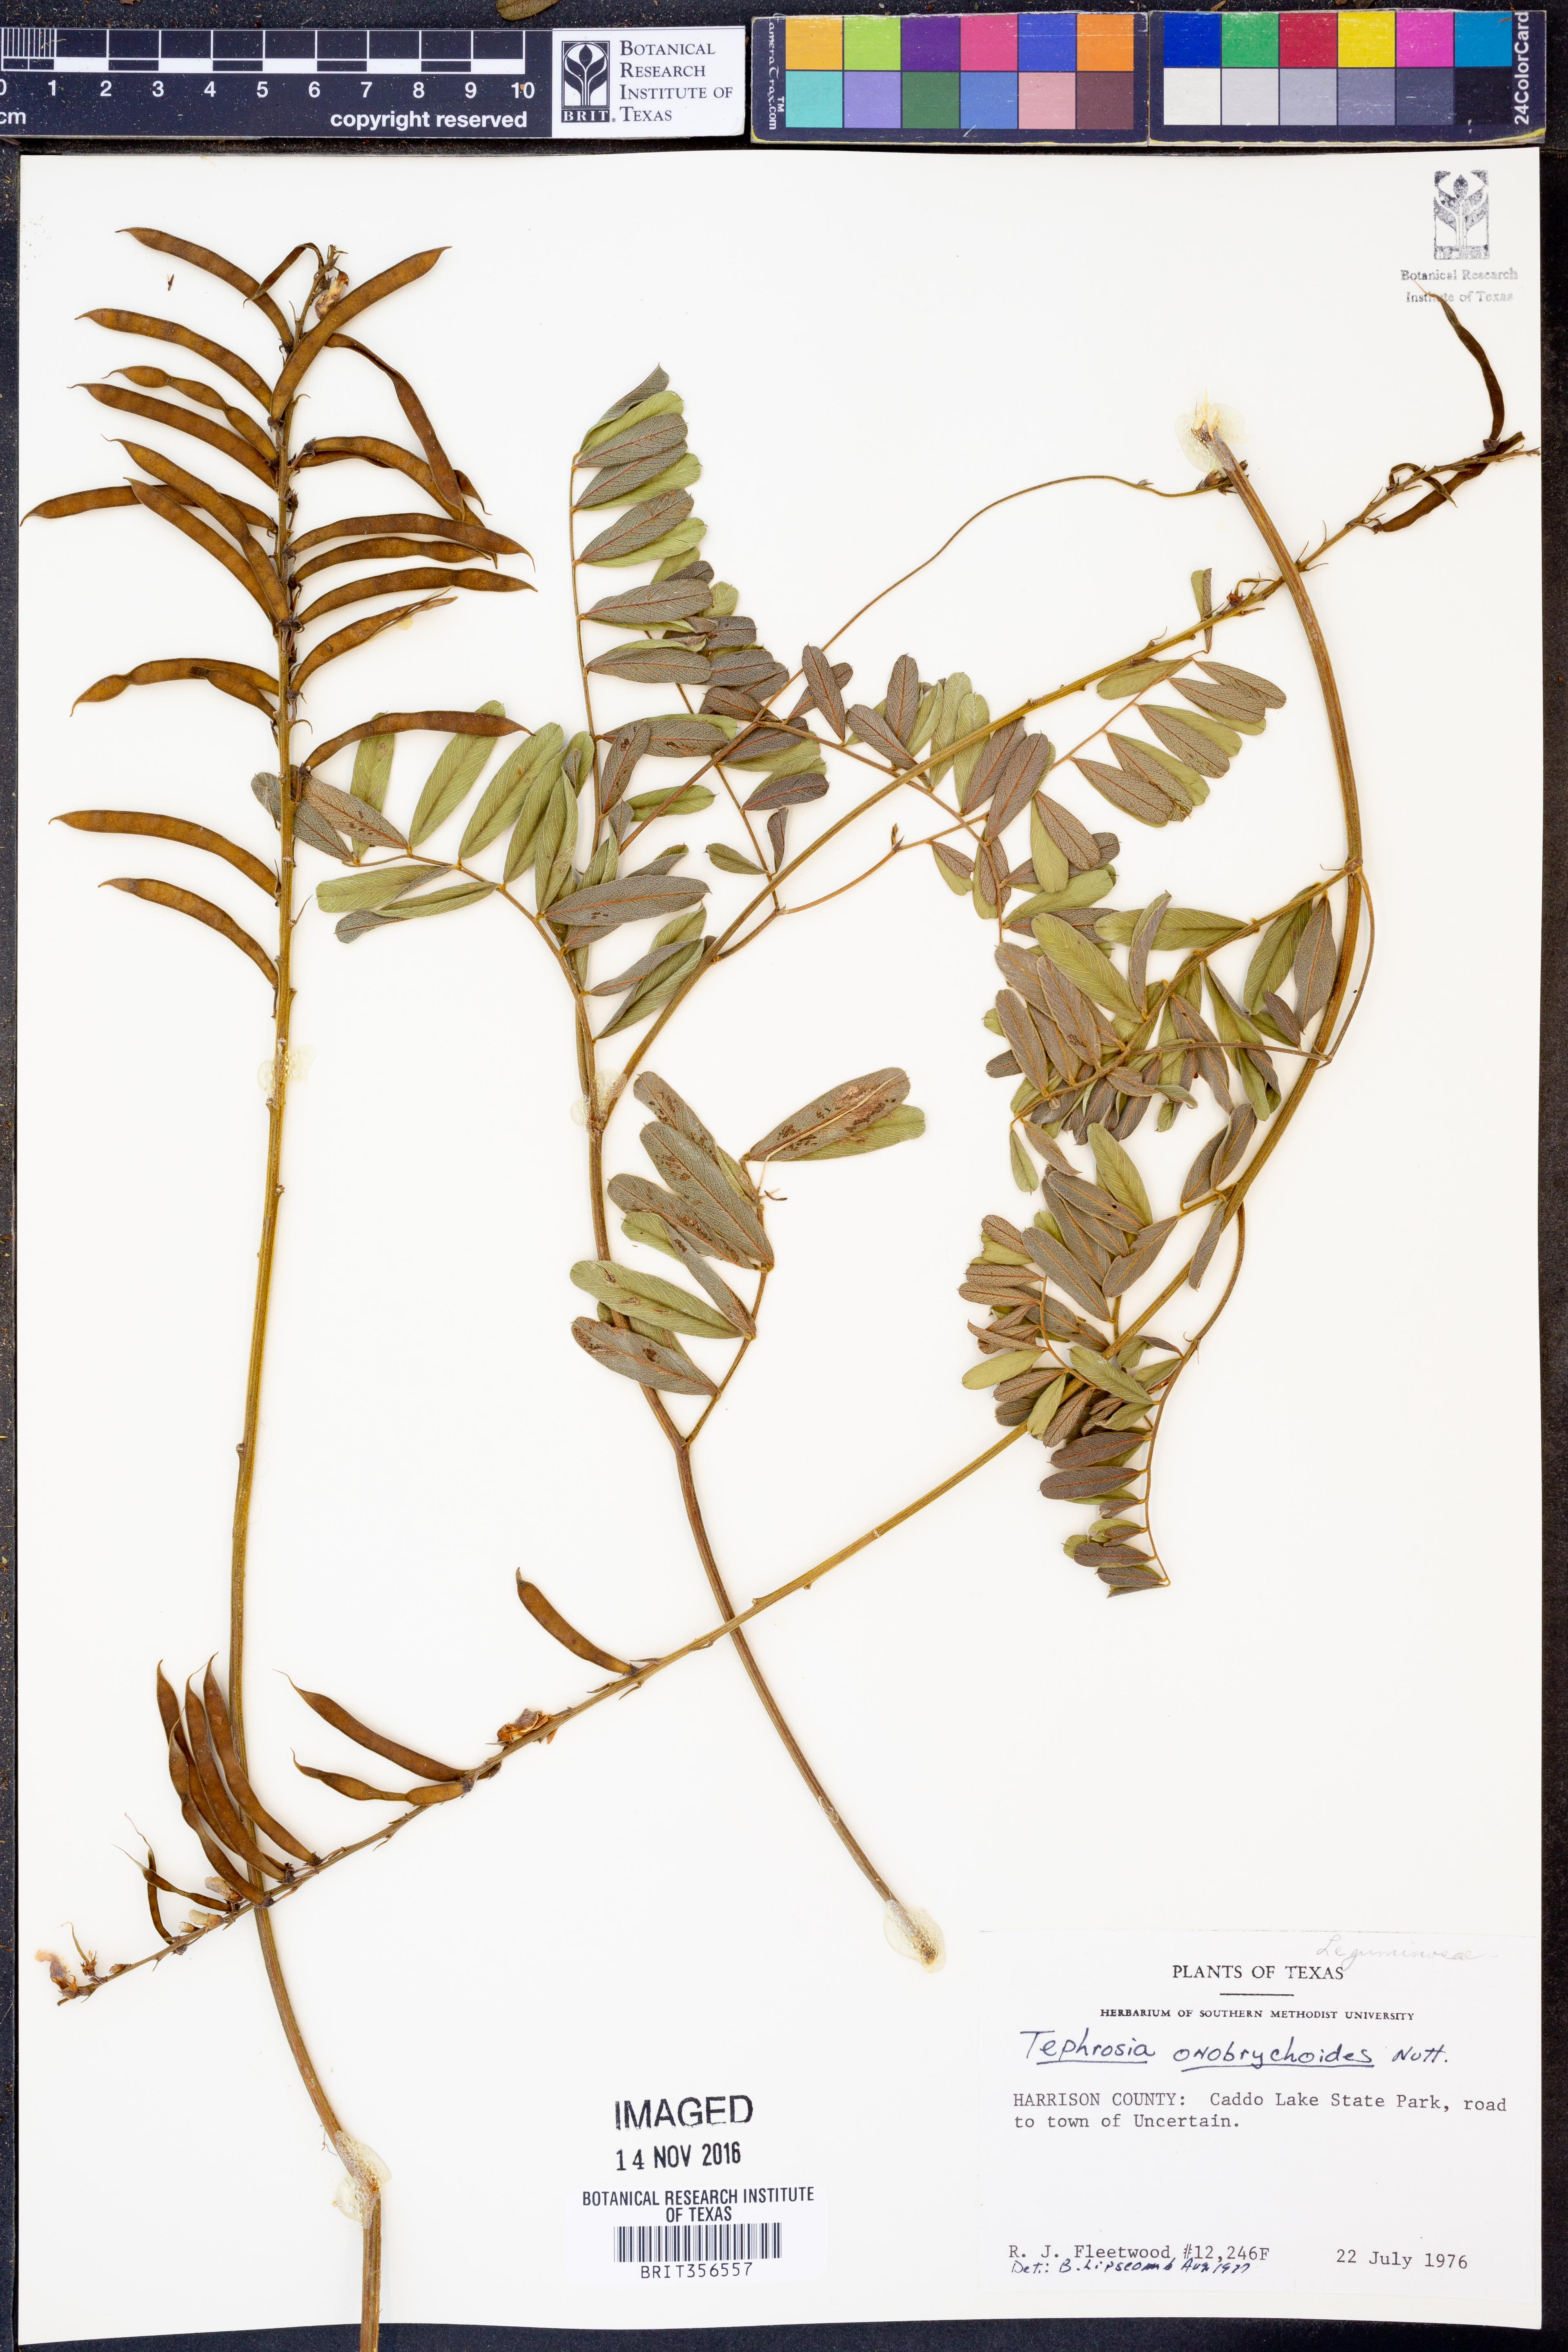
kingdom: Plantae
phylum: Tracheophyta
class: Magnoliopsida
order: Fabales
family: Fabaceae
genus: Tephrosia
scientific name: Tephrosia onobrychoides
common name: Multi-bloom hoary-pea
